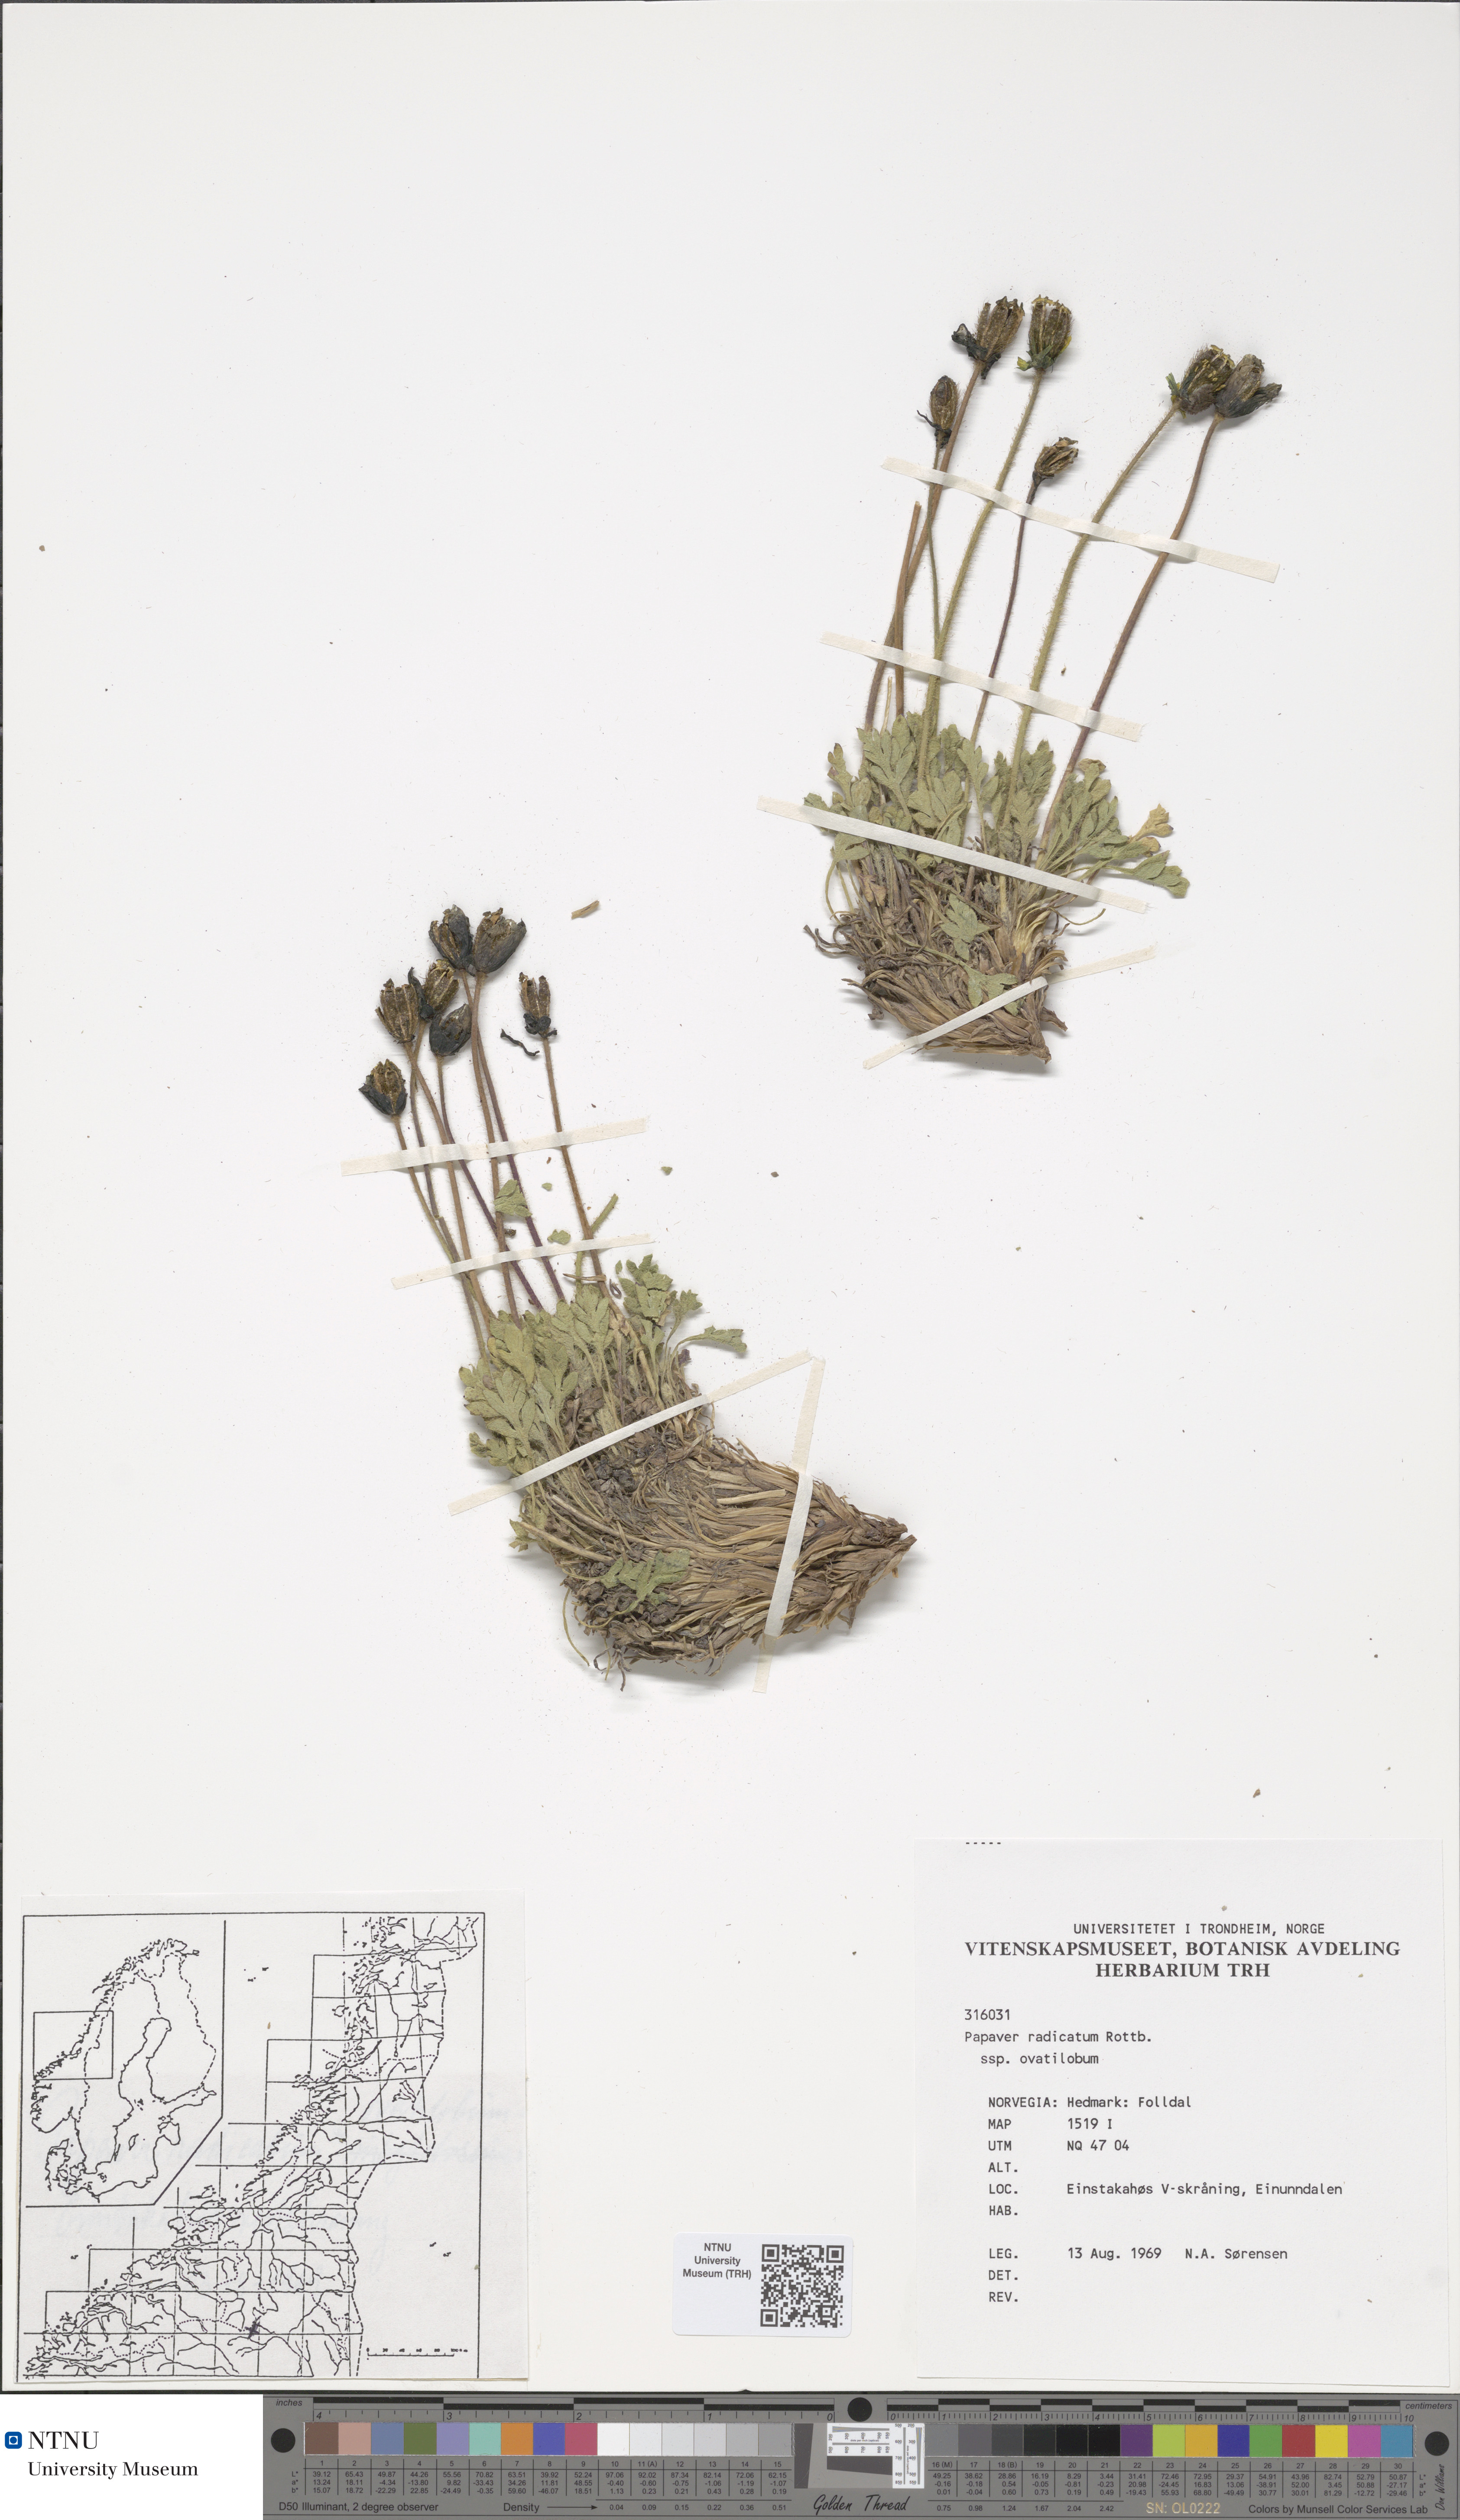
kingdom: Plantae
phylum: Tracheophyta
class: Magnoliopsida
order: Ranunculales
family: Papaveraceae
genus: Papaver
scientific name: Papaver radicatum
